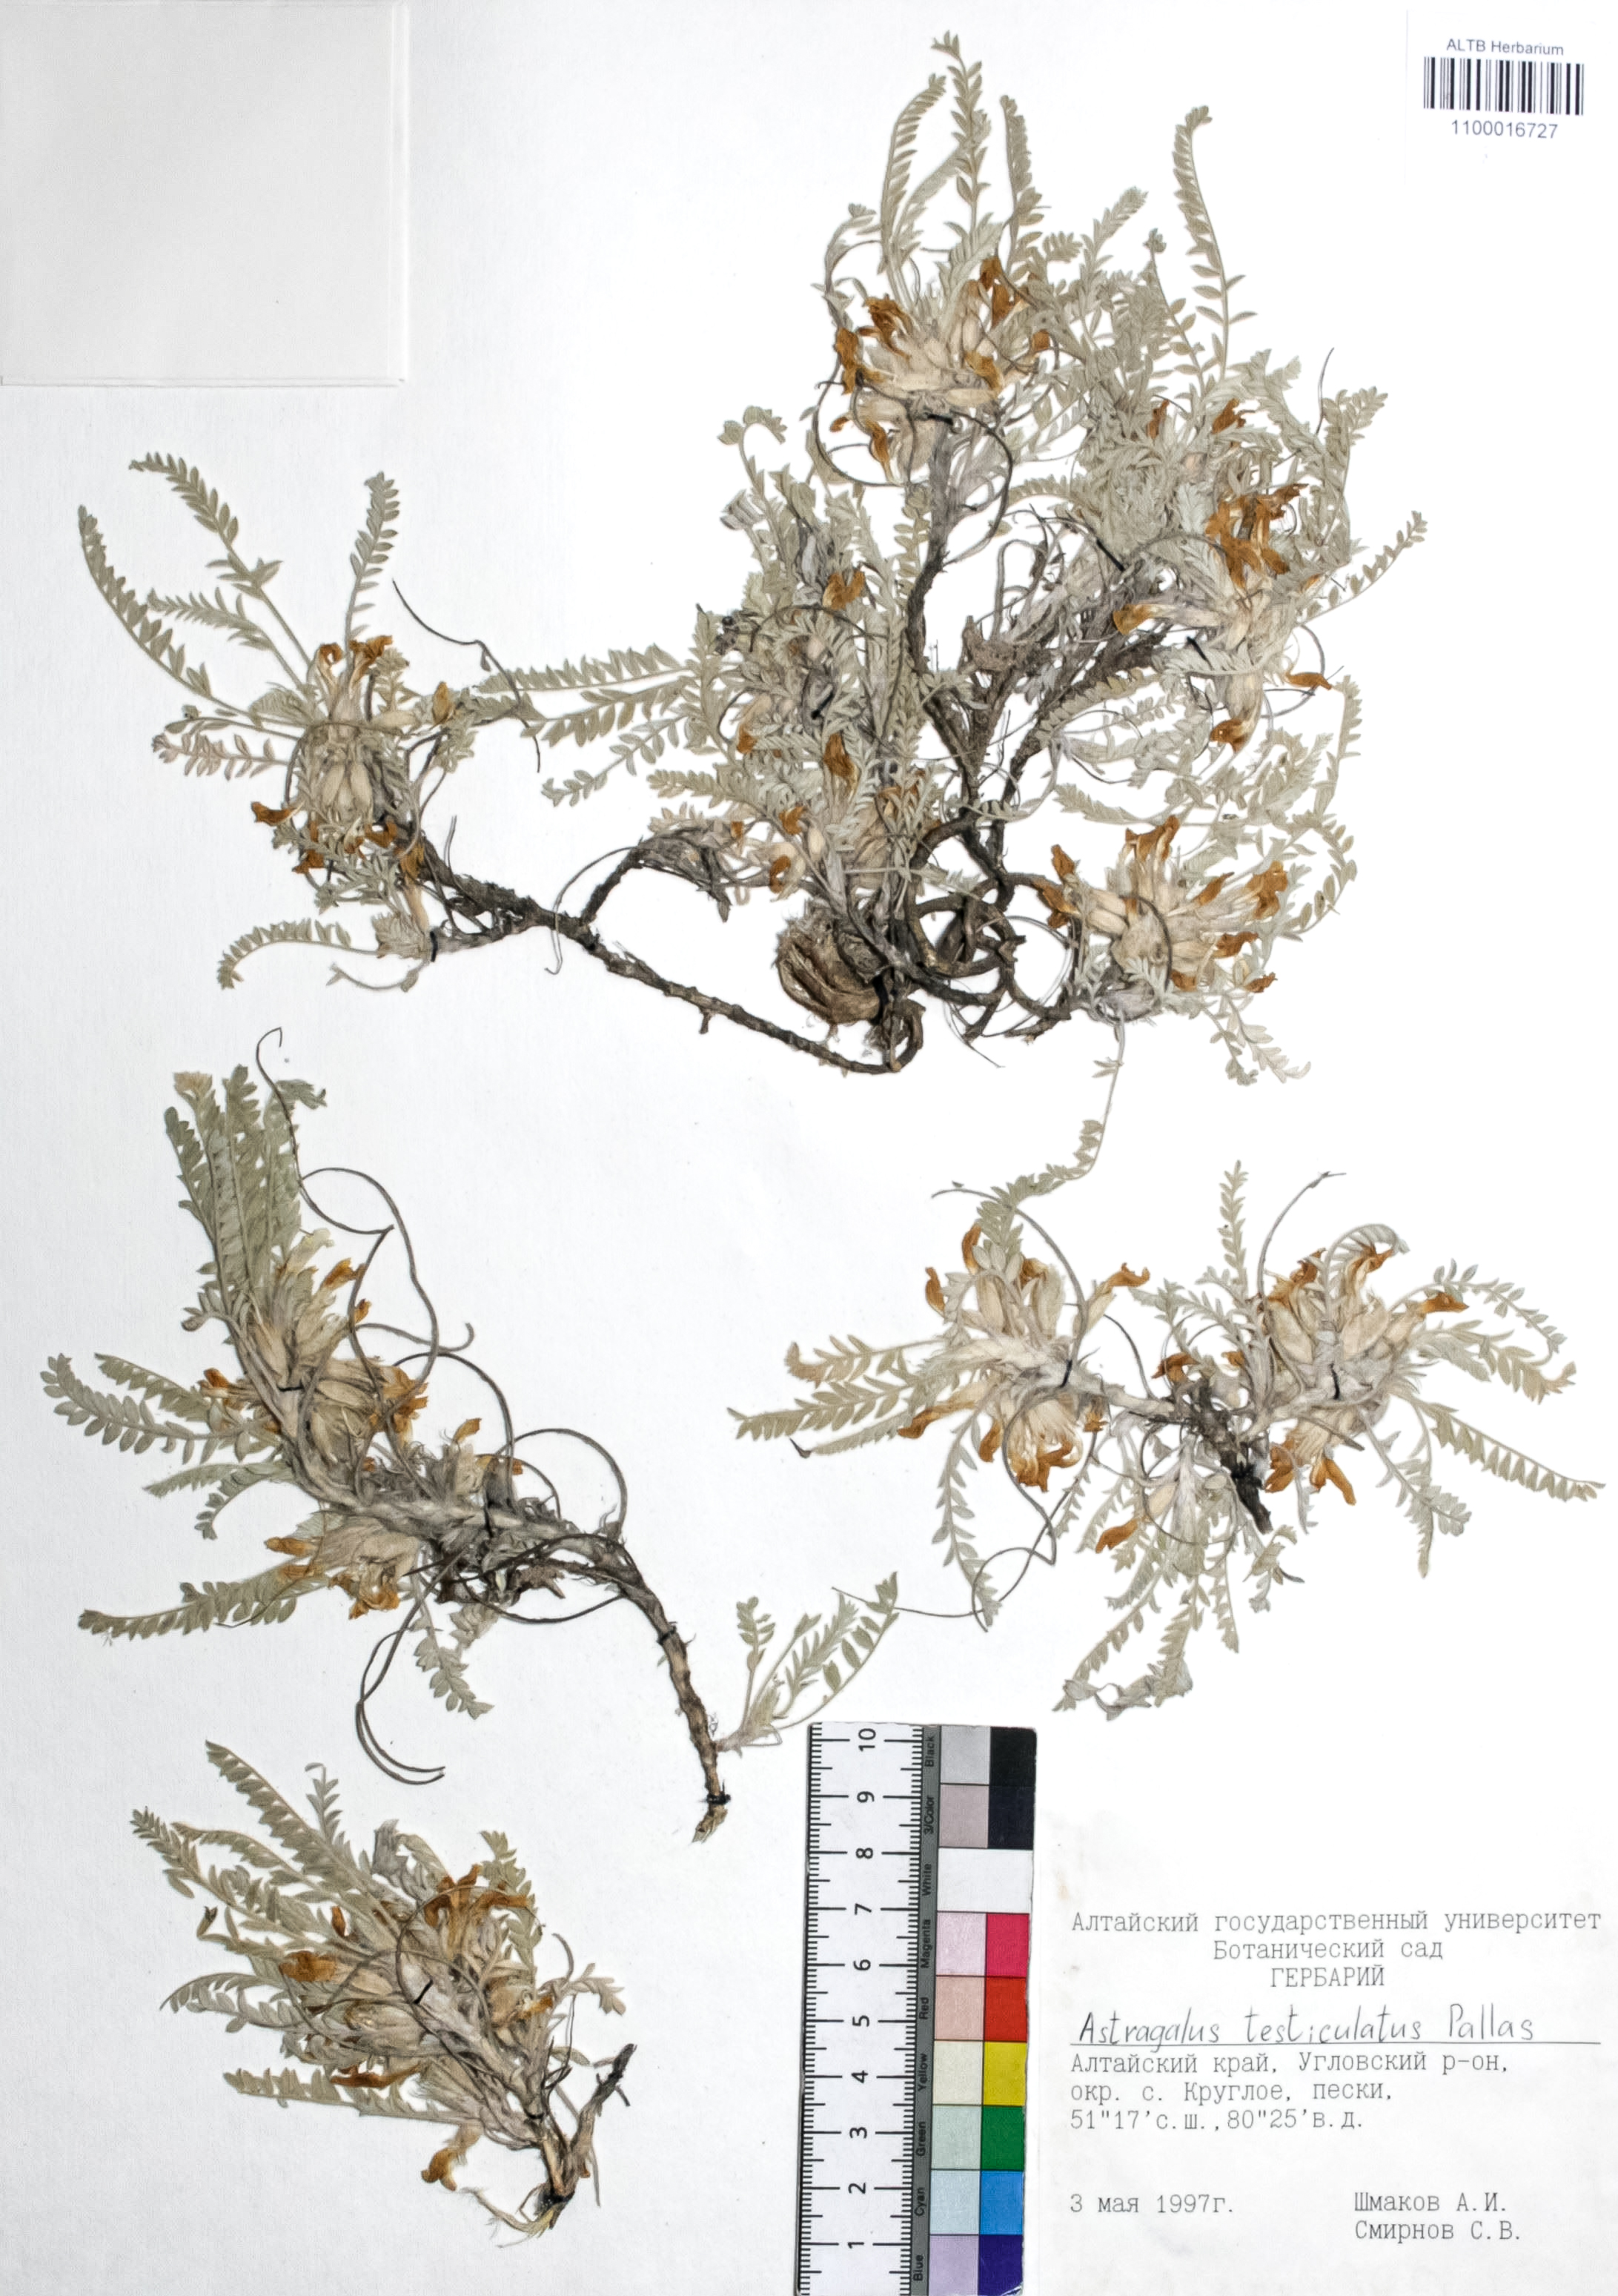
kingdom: Plantae
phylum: Tracheophyta
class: Magnoliopsida
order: Fabales
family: Fabaceae
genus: Astragalus
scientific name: Astragalus testiculatus
